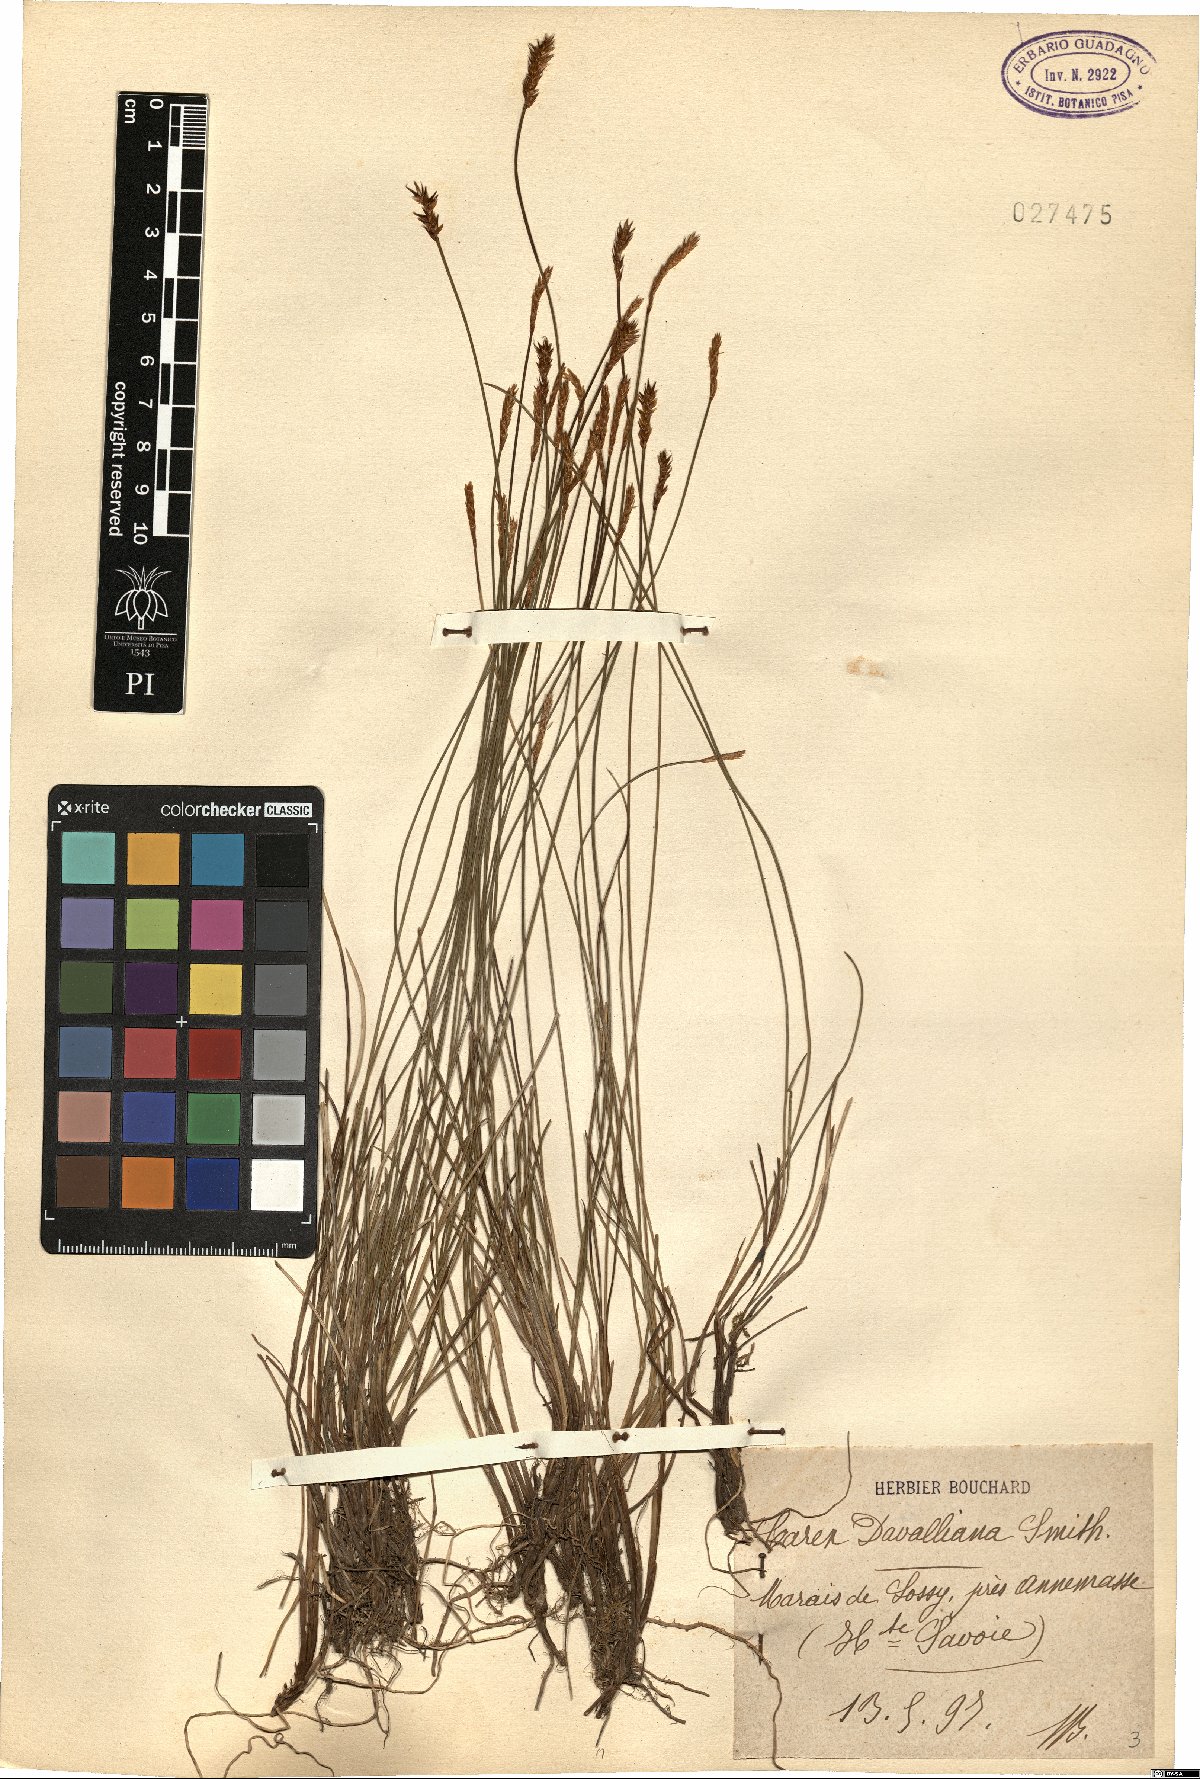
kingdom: Plantae
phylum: Tracheophyta
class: Liliopsida
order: Poales
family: Cyperaceae
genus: Carex
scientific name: Carex davalliana
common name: Davall's sedge
